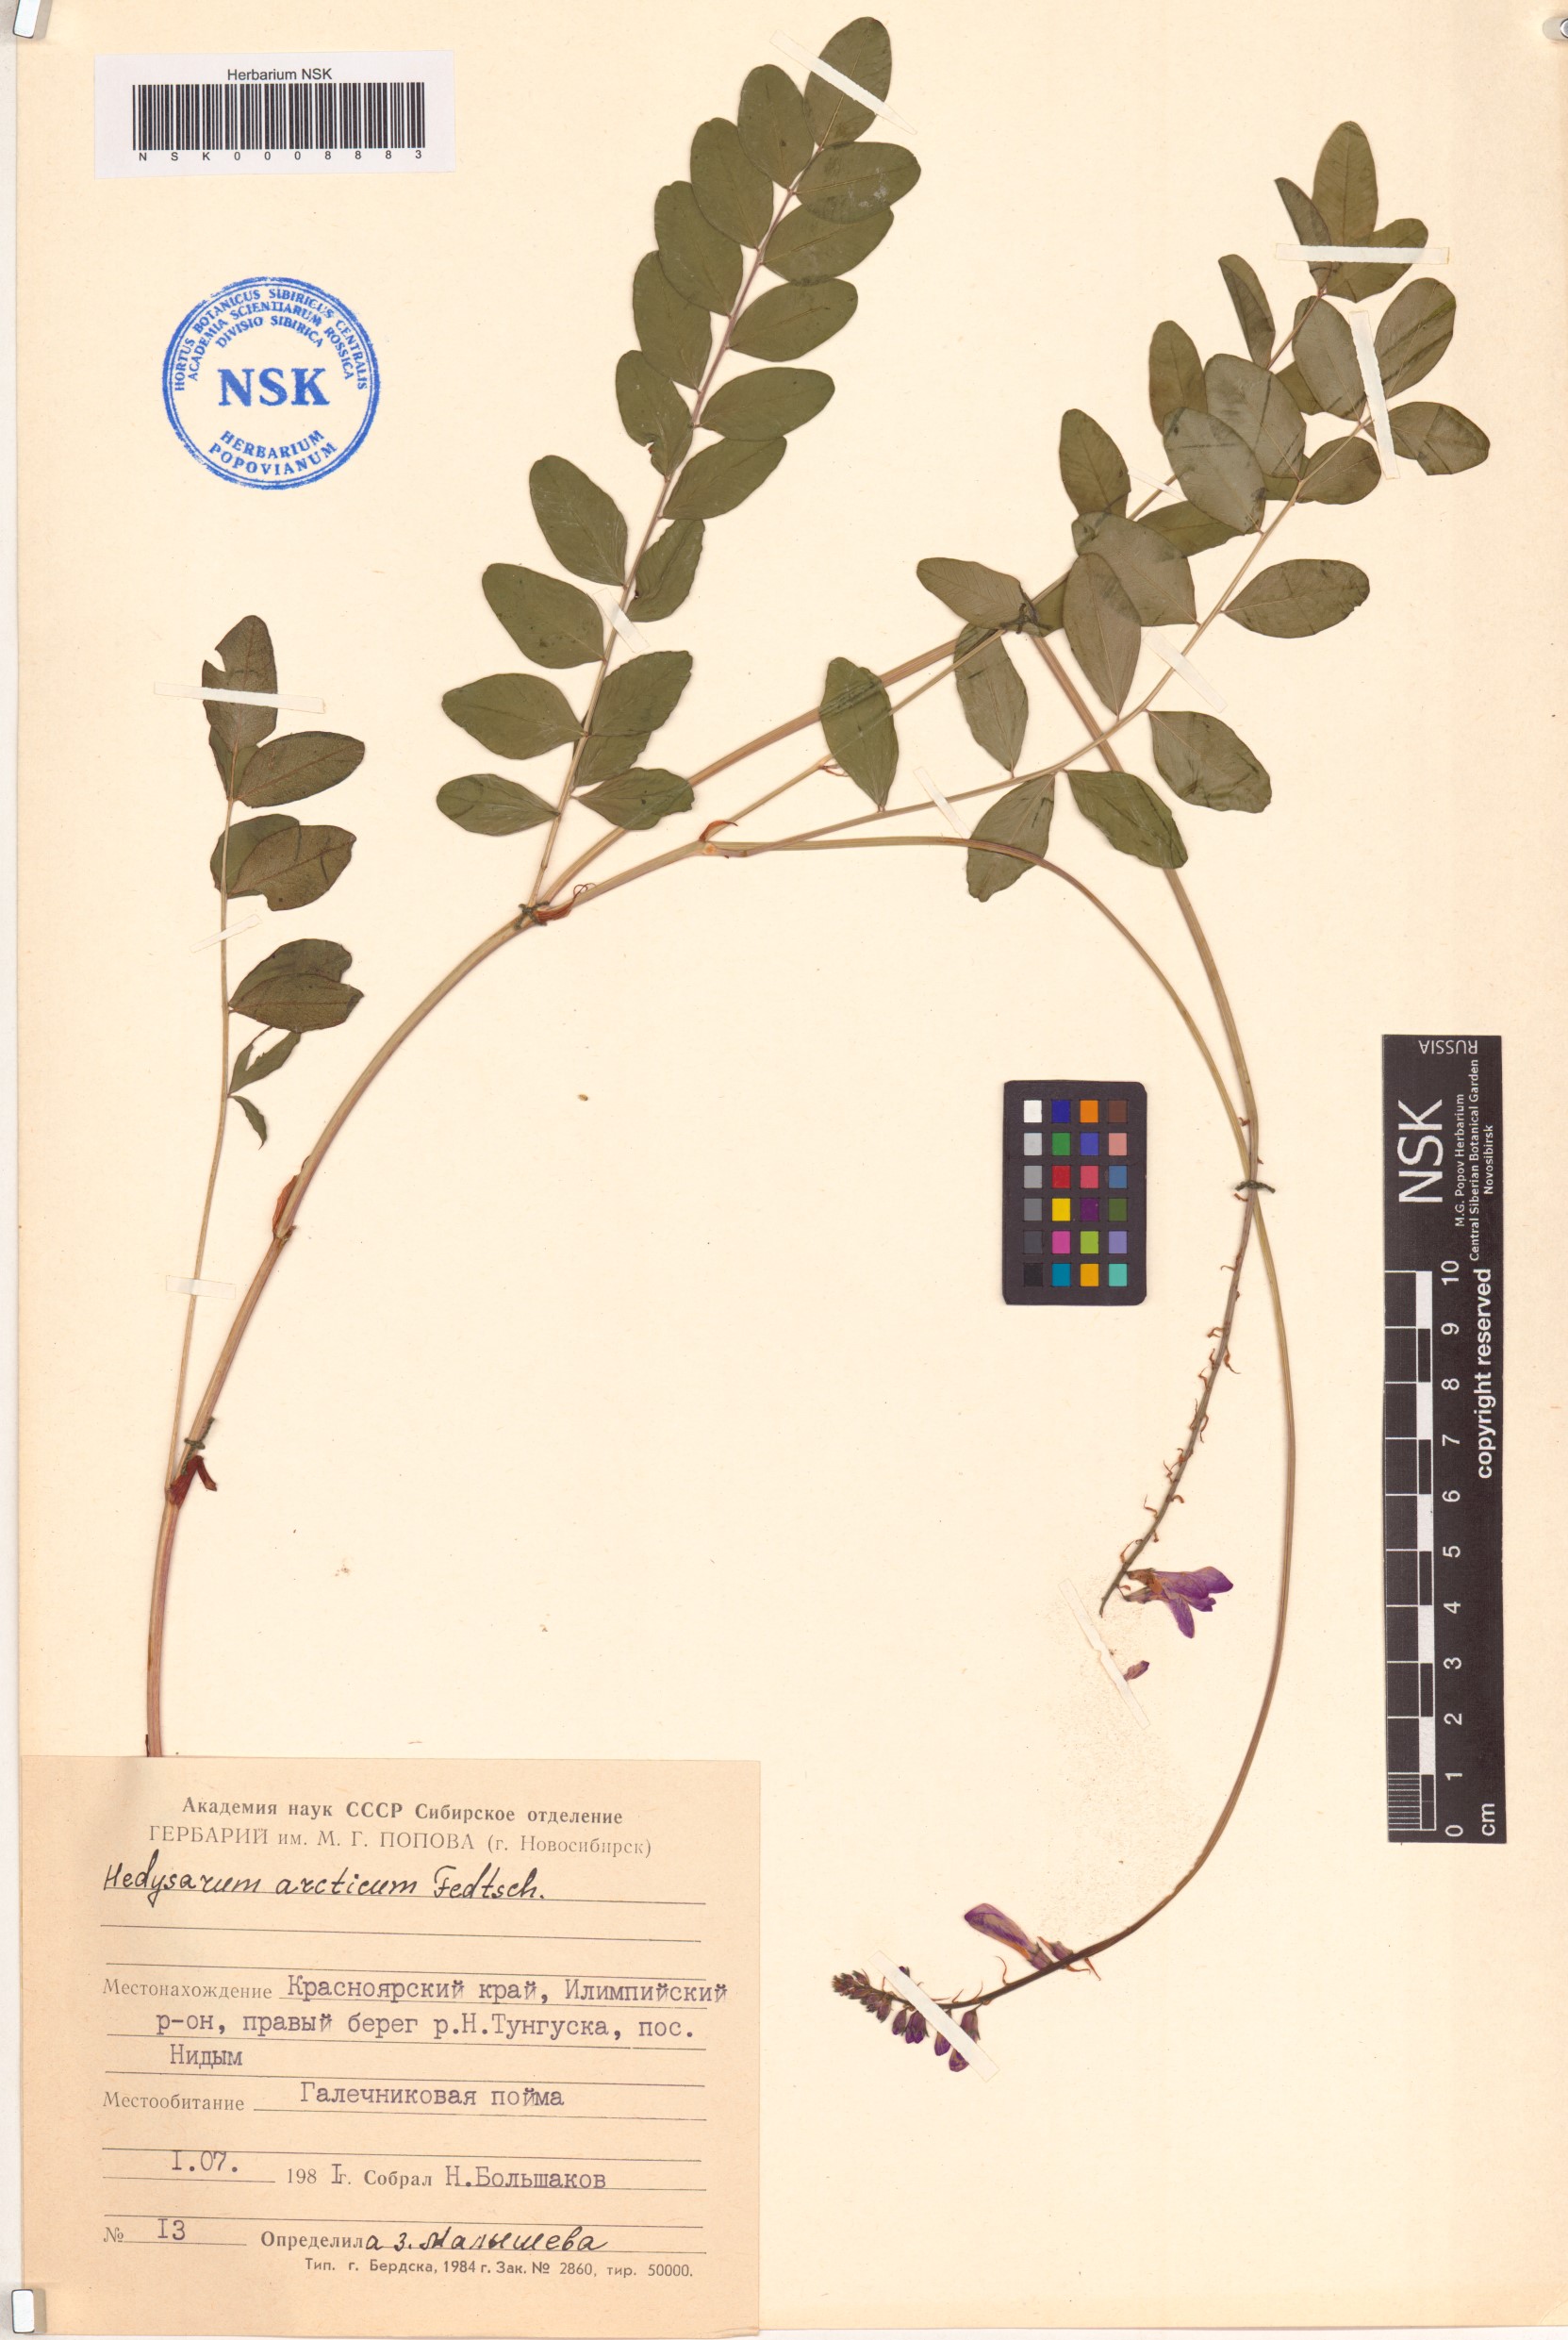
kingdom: Plantae
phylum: Tracheophyta
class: Magnoliopsida
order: Fabales
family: Fabaceae
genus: Hedysarum
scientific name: Hedysarum hedysaroides
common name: Alpine french-honeysuckle
